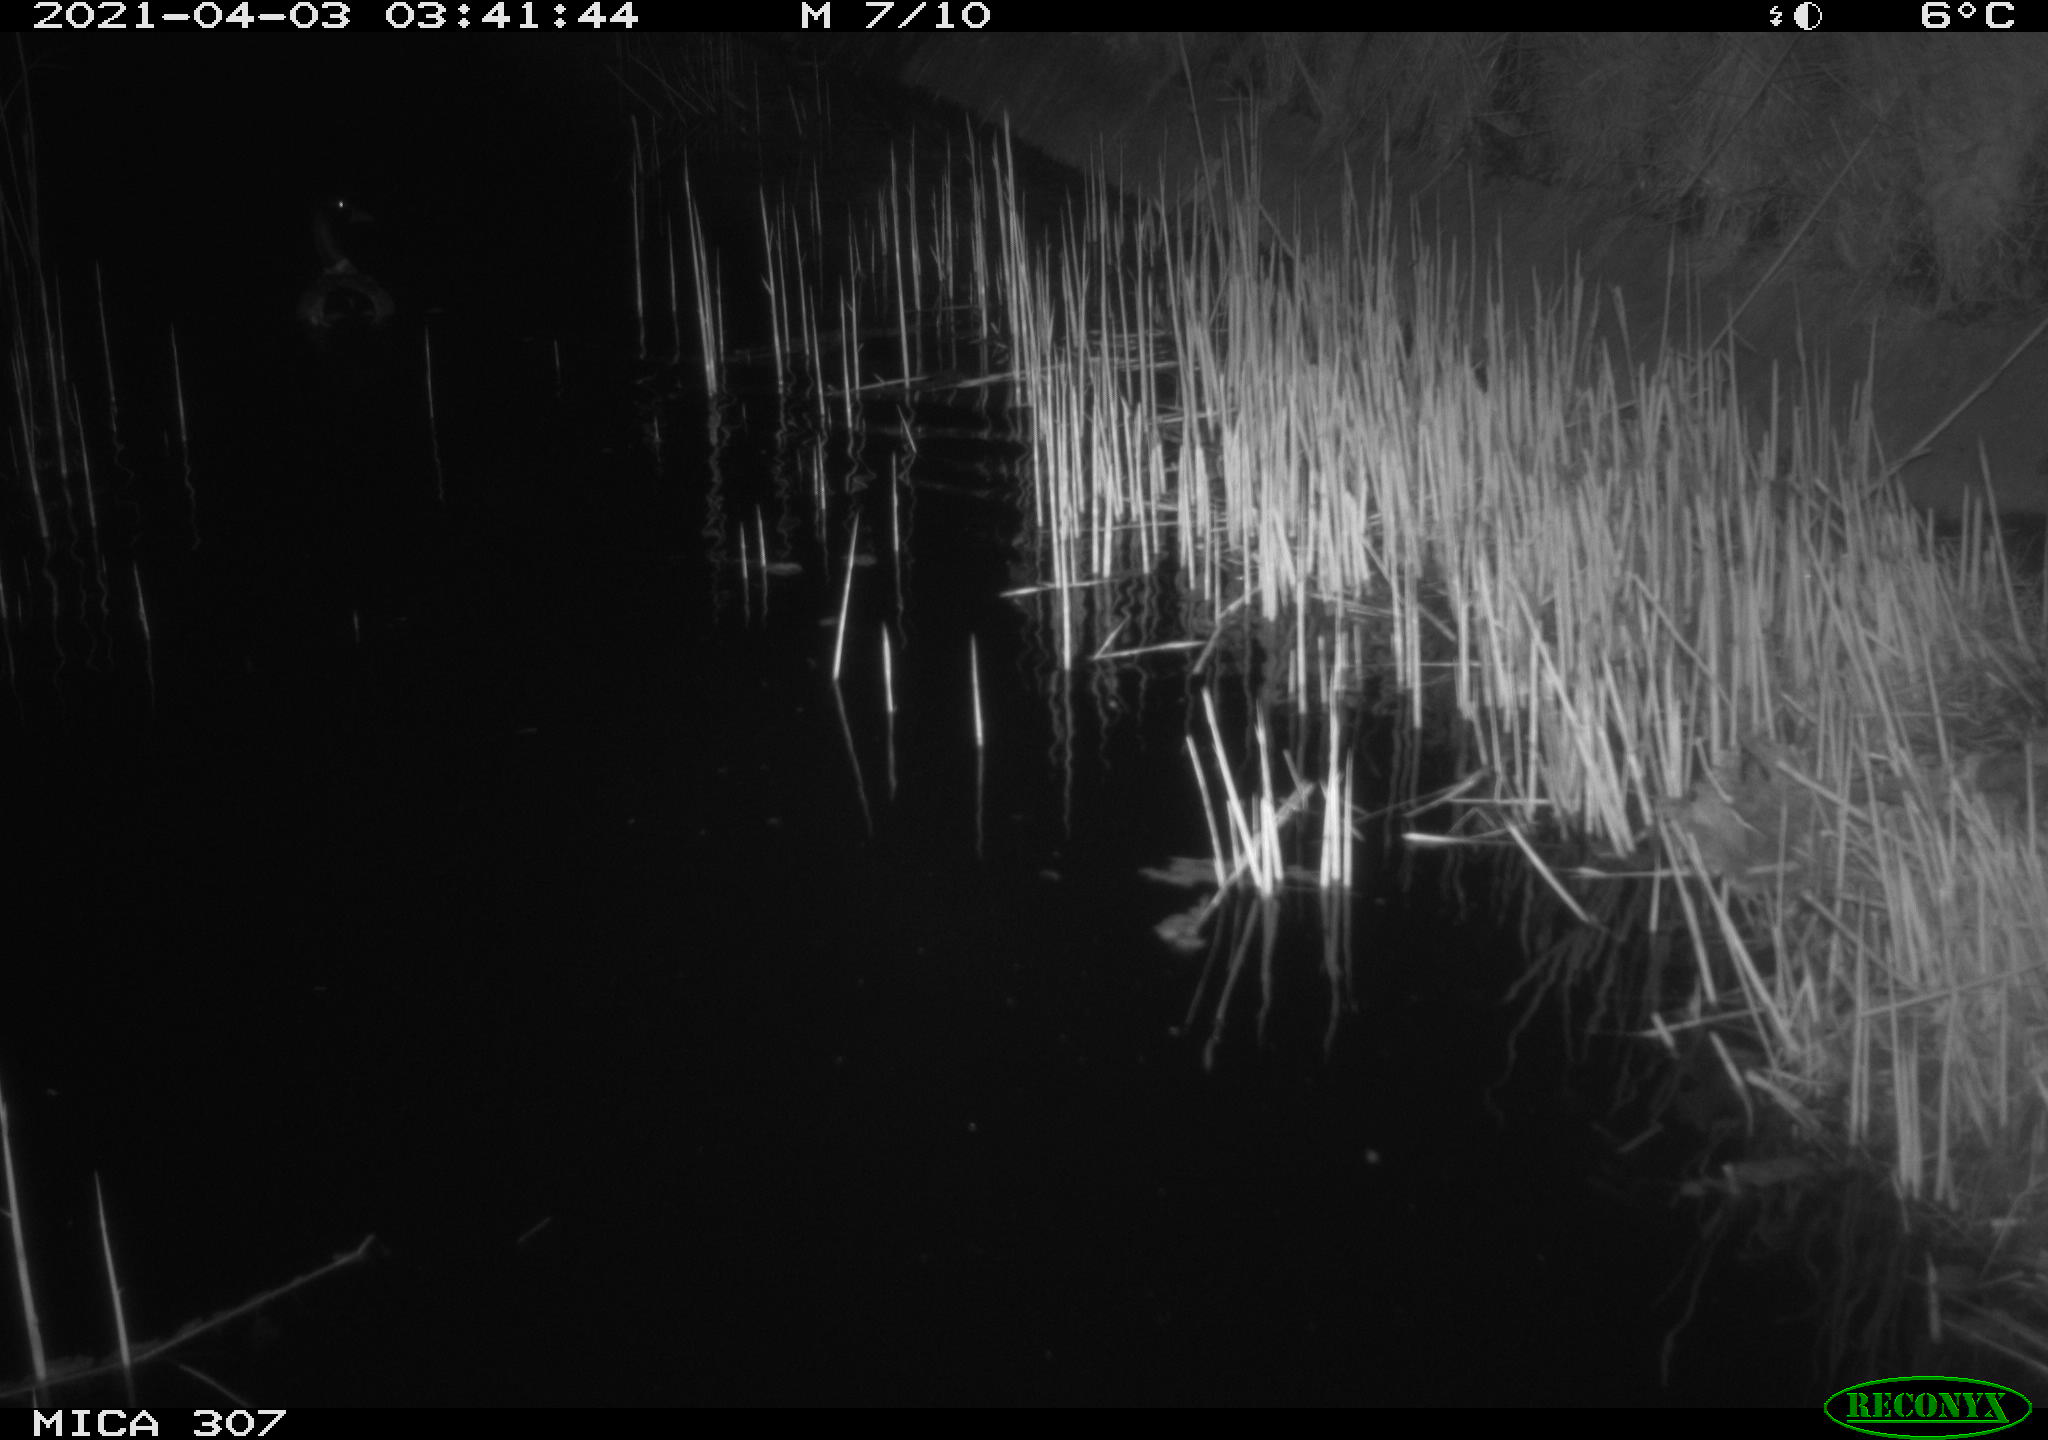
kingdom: Animalia
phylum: Chordata
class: Aves
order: Anseriformes
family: Anatidae
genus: Anas
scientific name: Anas platyrhynchos
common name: Mallard
